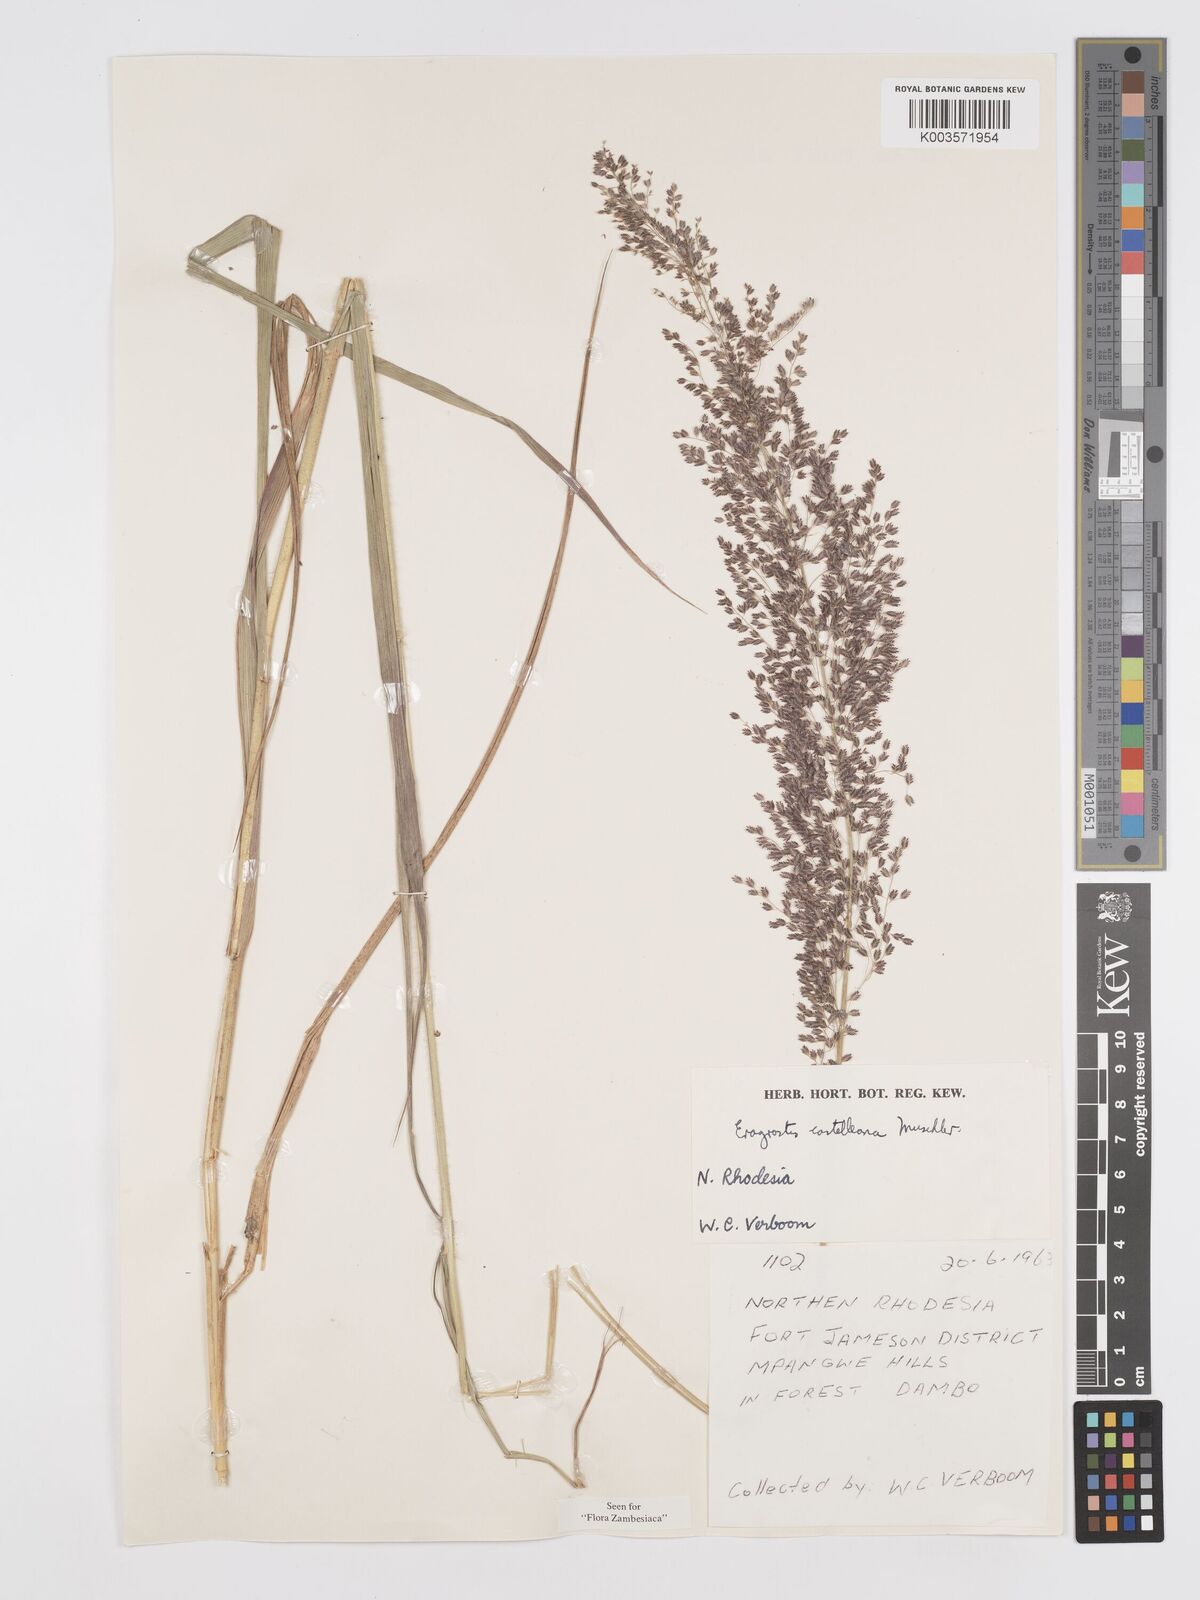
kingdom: Plantae
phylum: Tracheophyta
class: Liliopsida
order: Poales
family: Poaceae
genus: Eragrostis
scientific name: Eragrostis castellaneana
